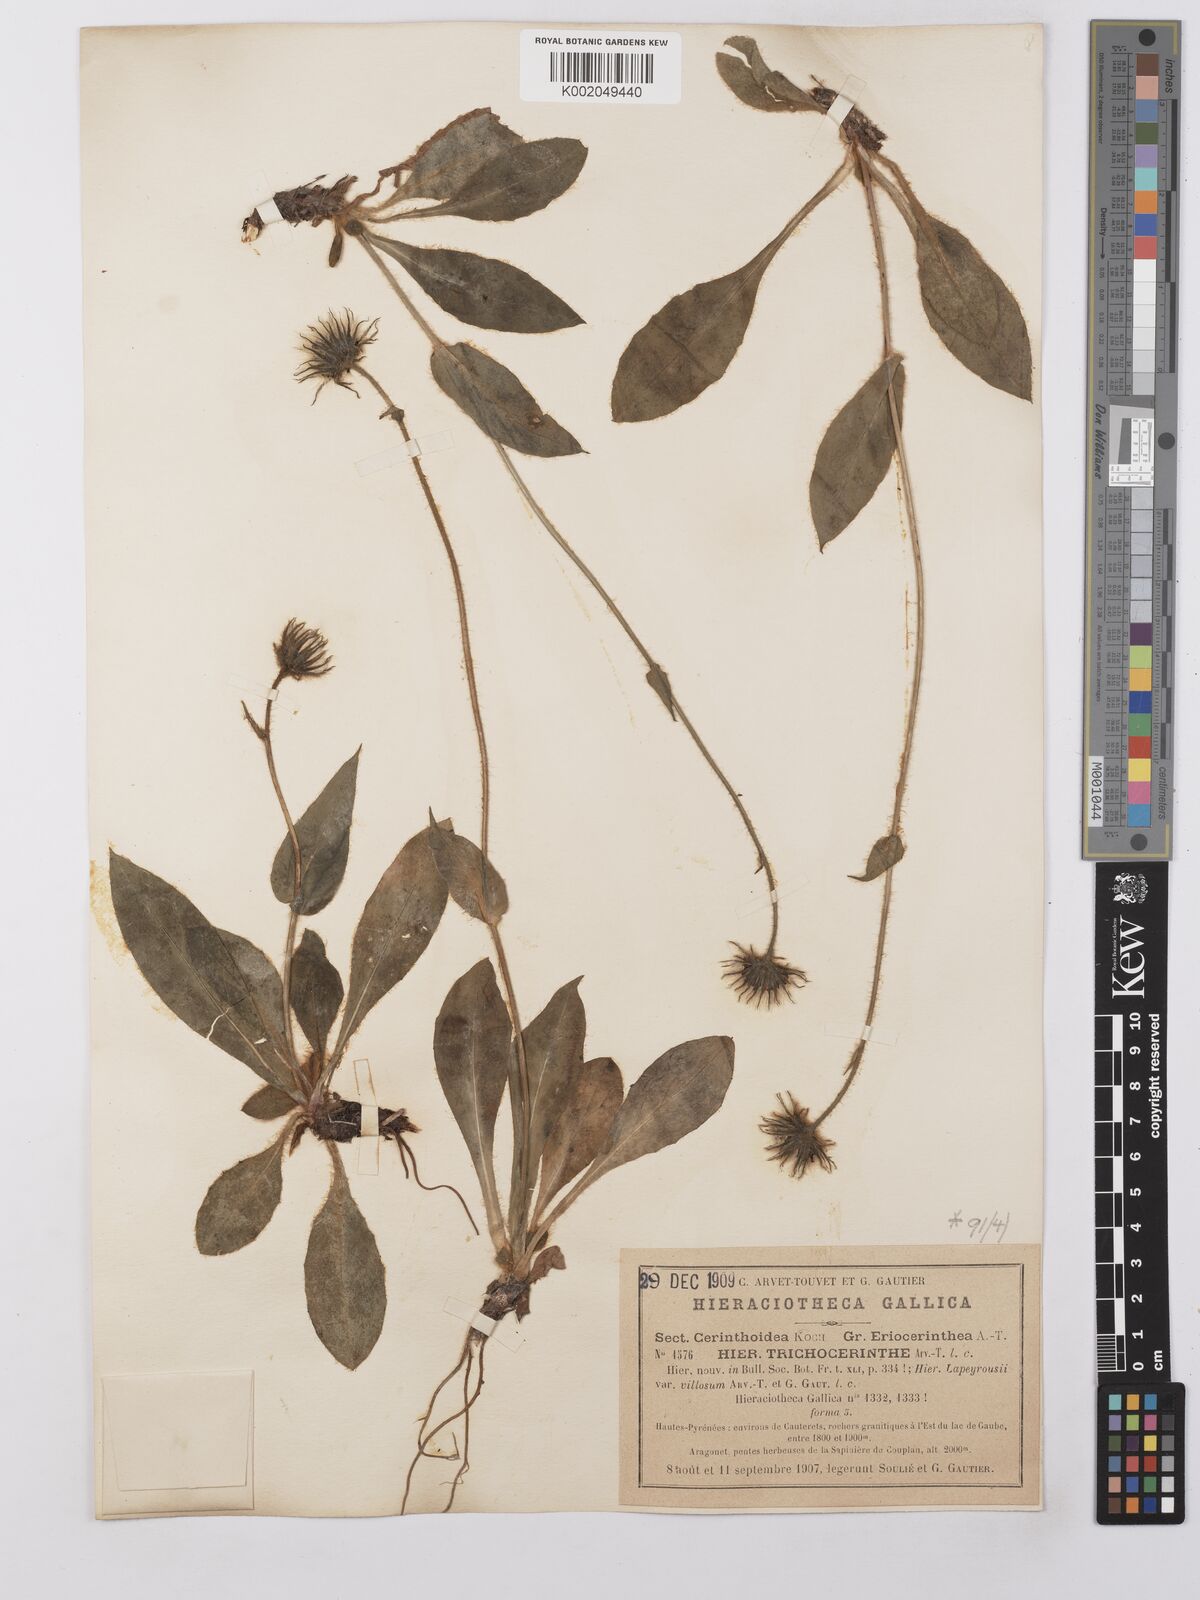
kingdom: Plantae
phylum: Tracheophyta
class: Magnoliopsida
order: Asterales
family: Asteraceae
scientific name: Asteraceae
